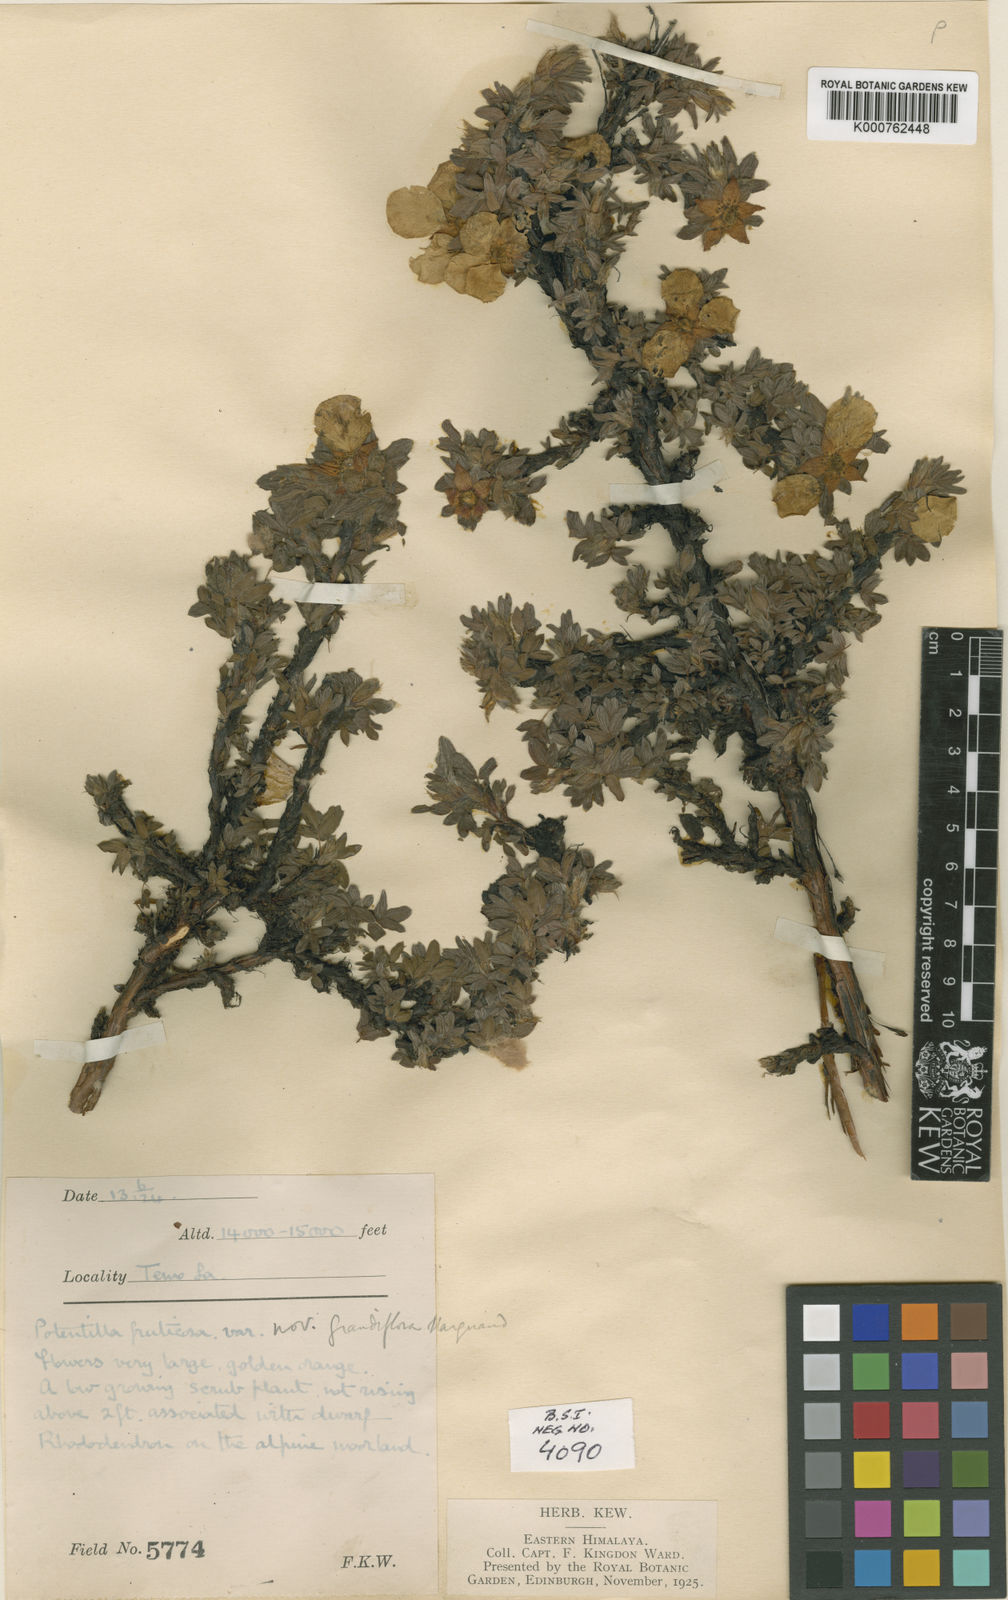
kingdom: Plantae
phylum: Tracheophyta
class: Magnoliopsida
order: Rosales
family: Rosaceae
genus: Dasiphora
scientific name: Dasiphora fruticosa
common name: Shrubby cinquefoil
